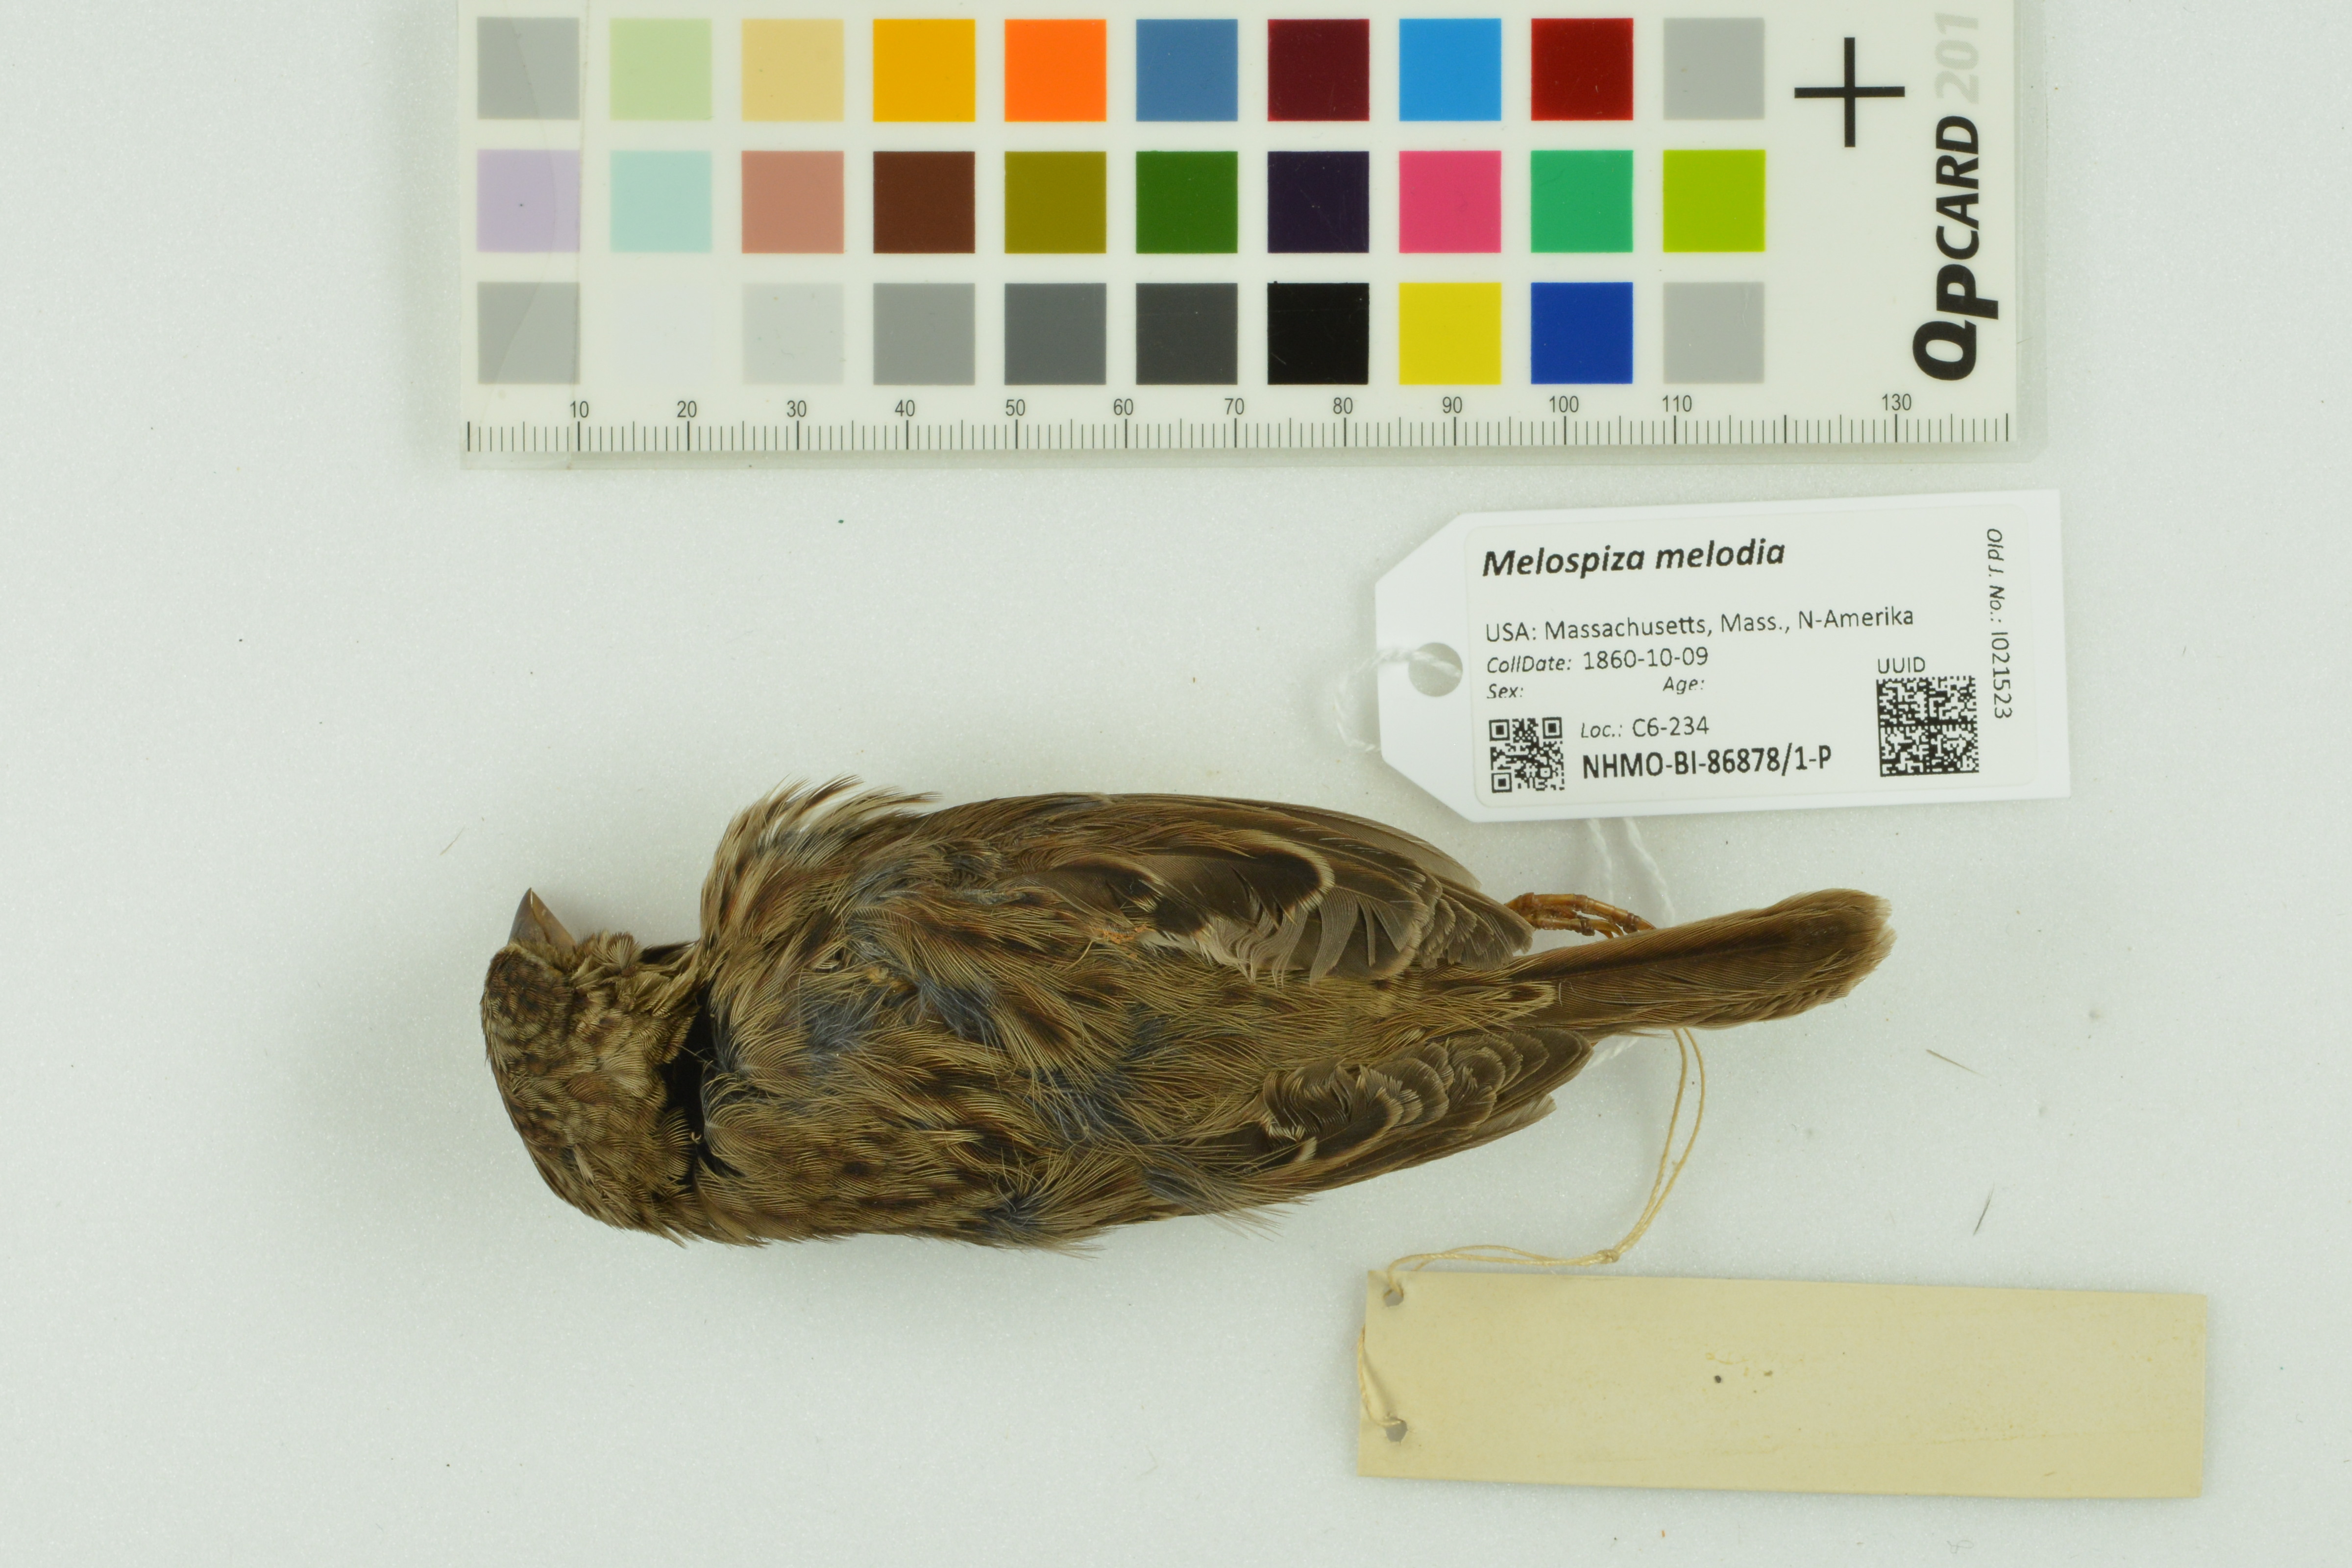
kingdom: Animalia
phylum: Chordata
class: Aves
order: Passeriformes
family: Passerellidae
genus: Melospiza
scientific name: Melospiza melodia
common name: Song sparrow
